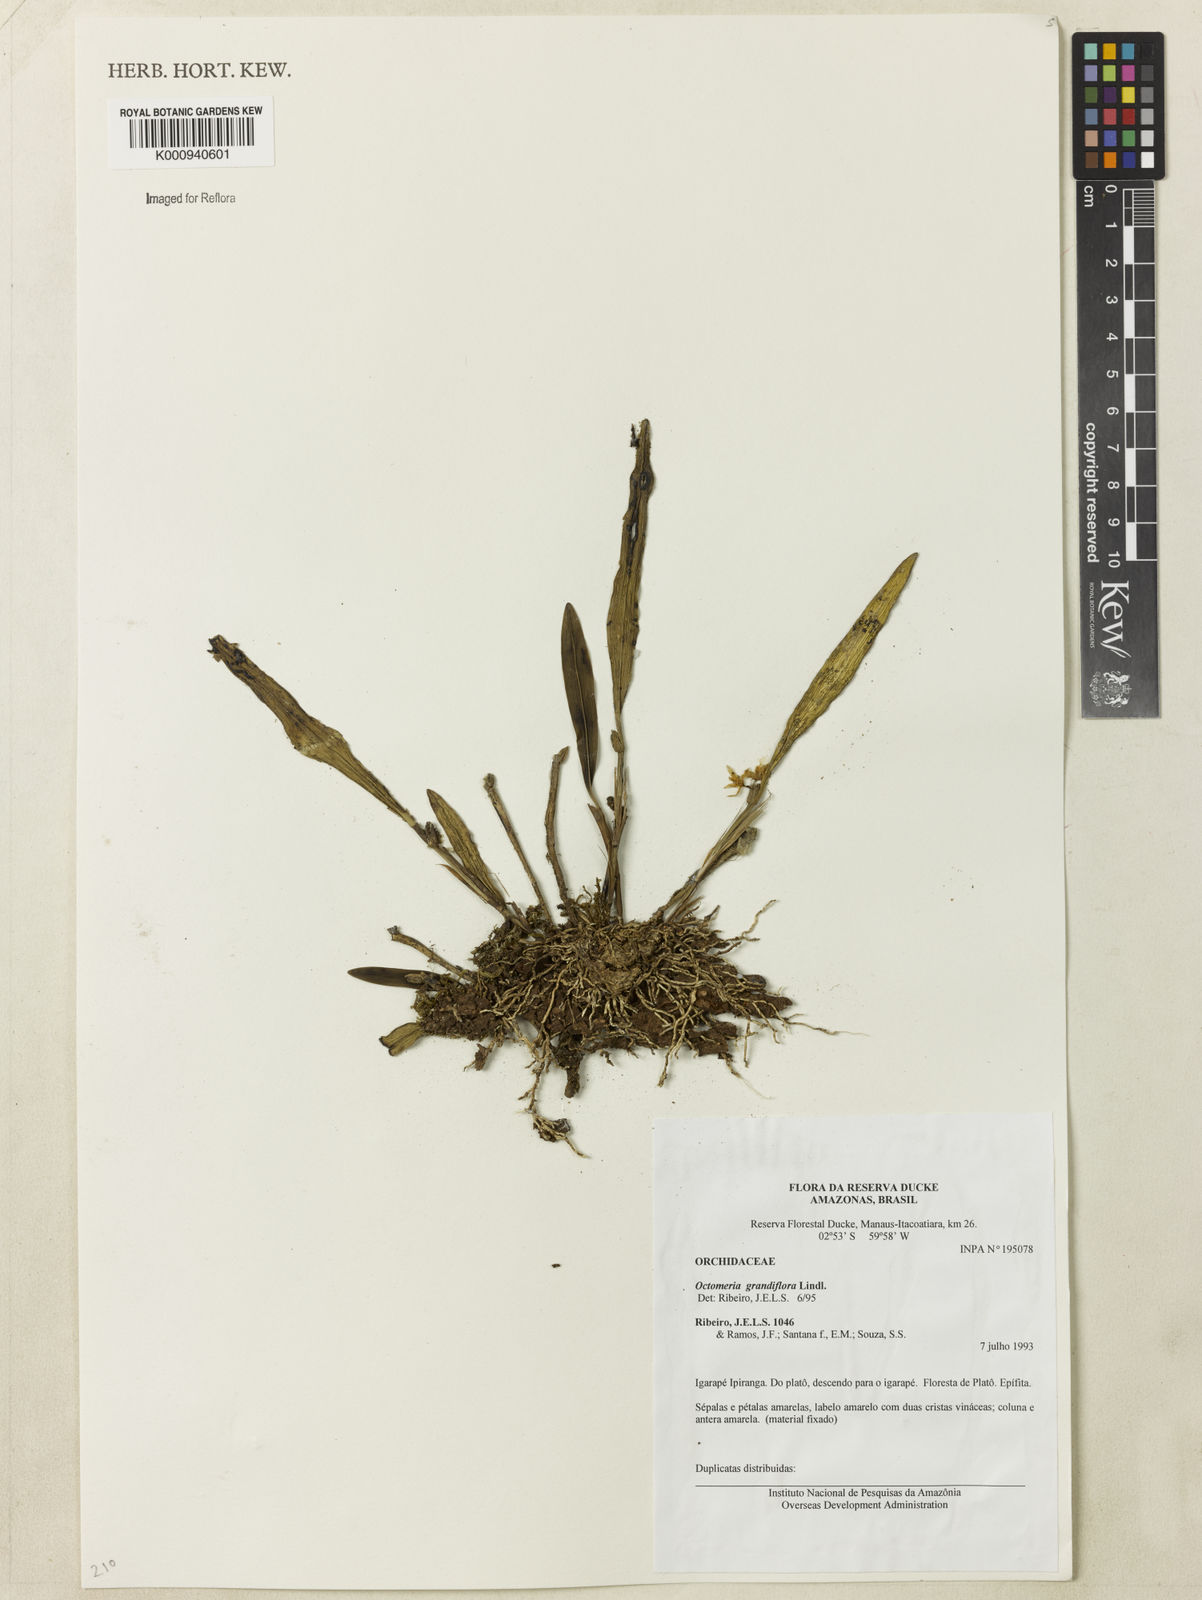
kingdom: Plantae
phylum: Tracheophyta
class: Liliopsida
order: Asparagales
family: Orchidaceae
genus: Octomeria
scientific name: Octomeria grandiflora
